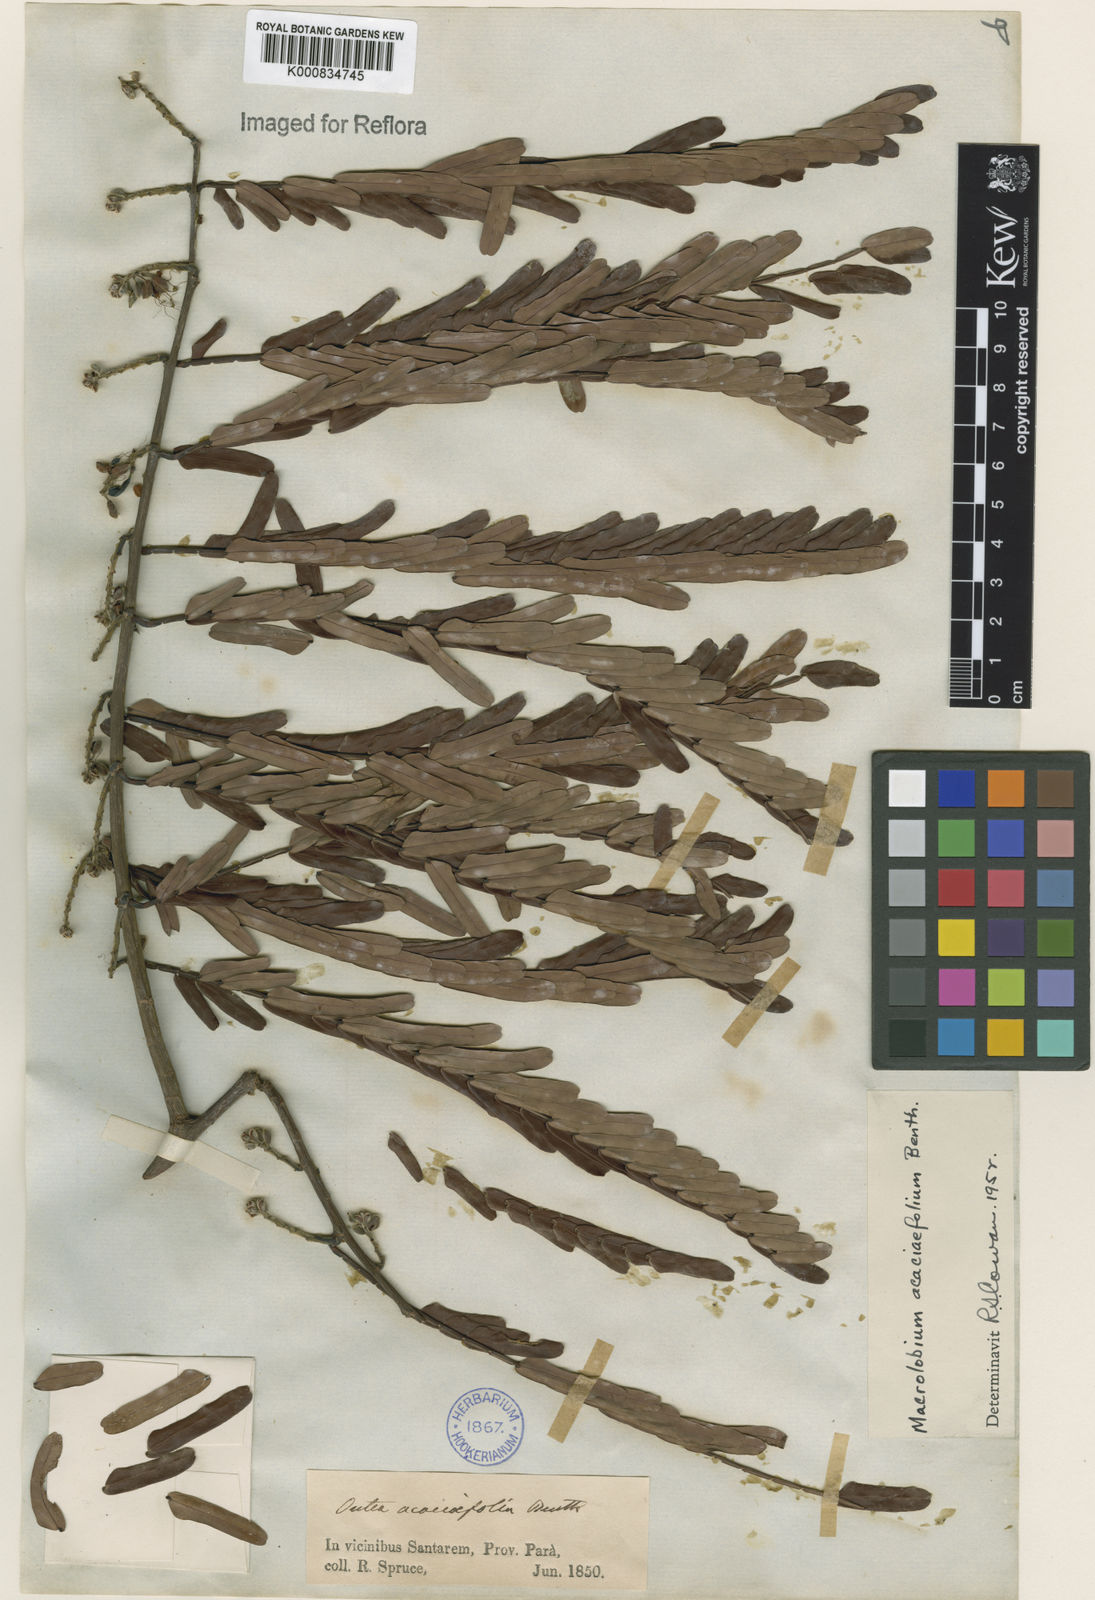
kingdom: Plantae
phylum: Tracheophyta
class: Magnoliopsida
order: Fabales
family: Fabaceae
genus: Macrolobium
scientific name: Macrolobium acaciifolium
